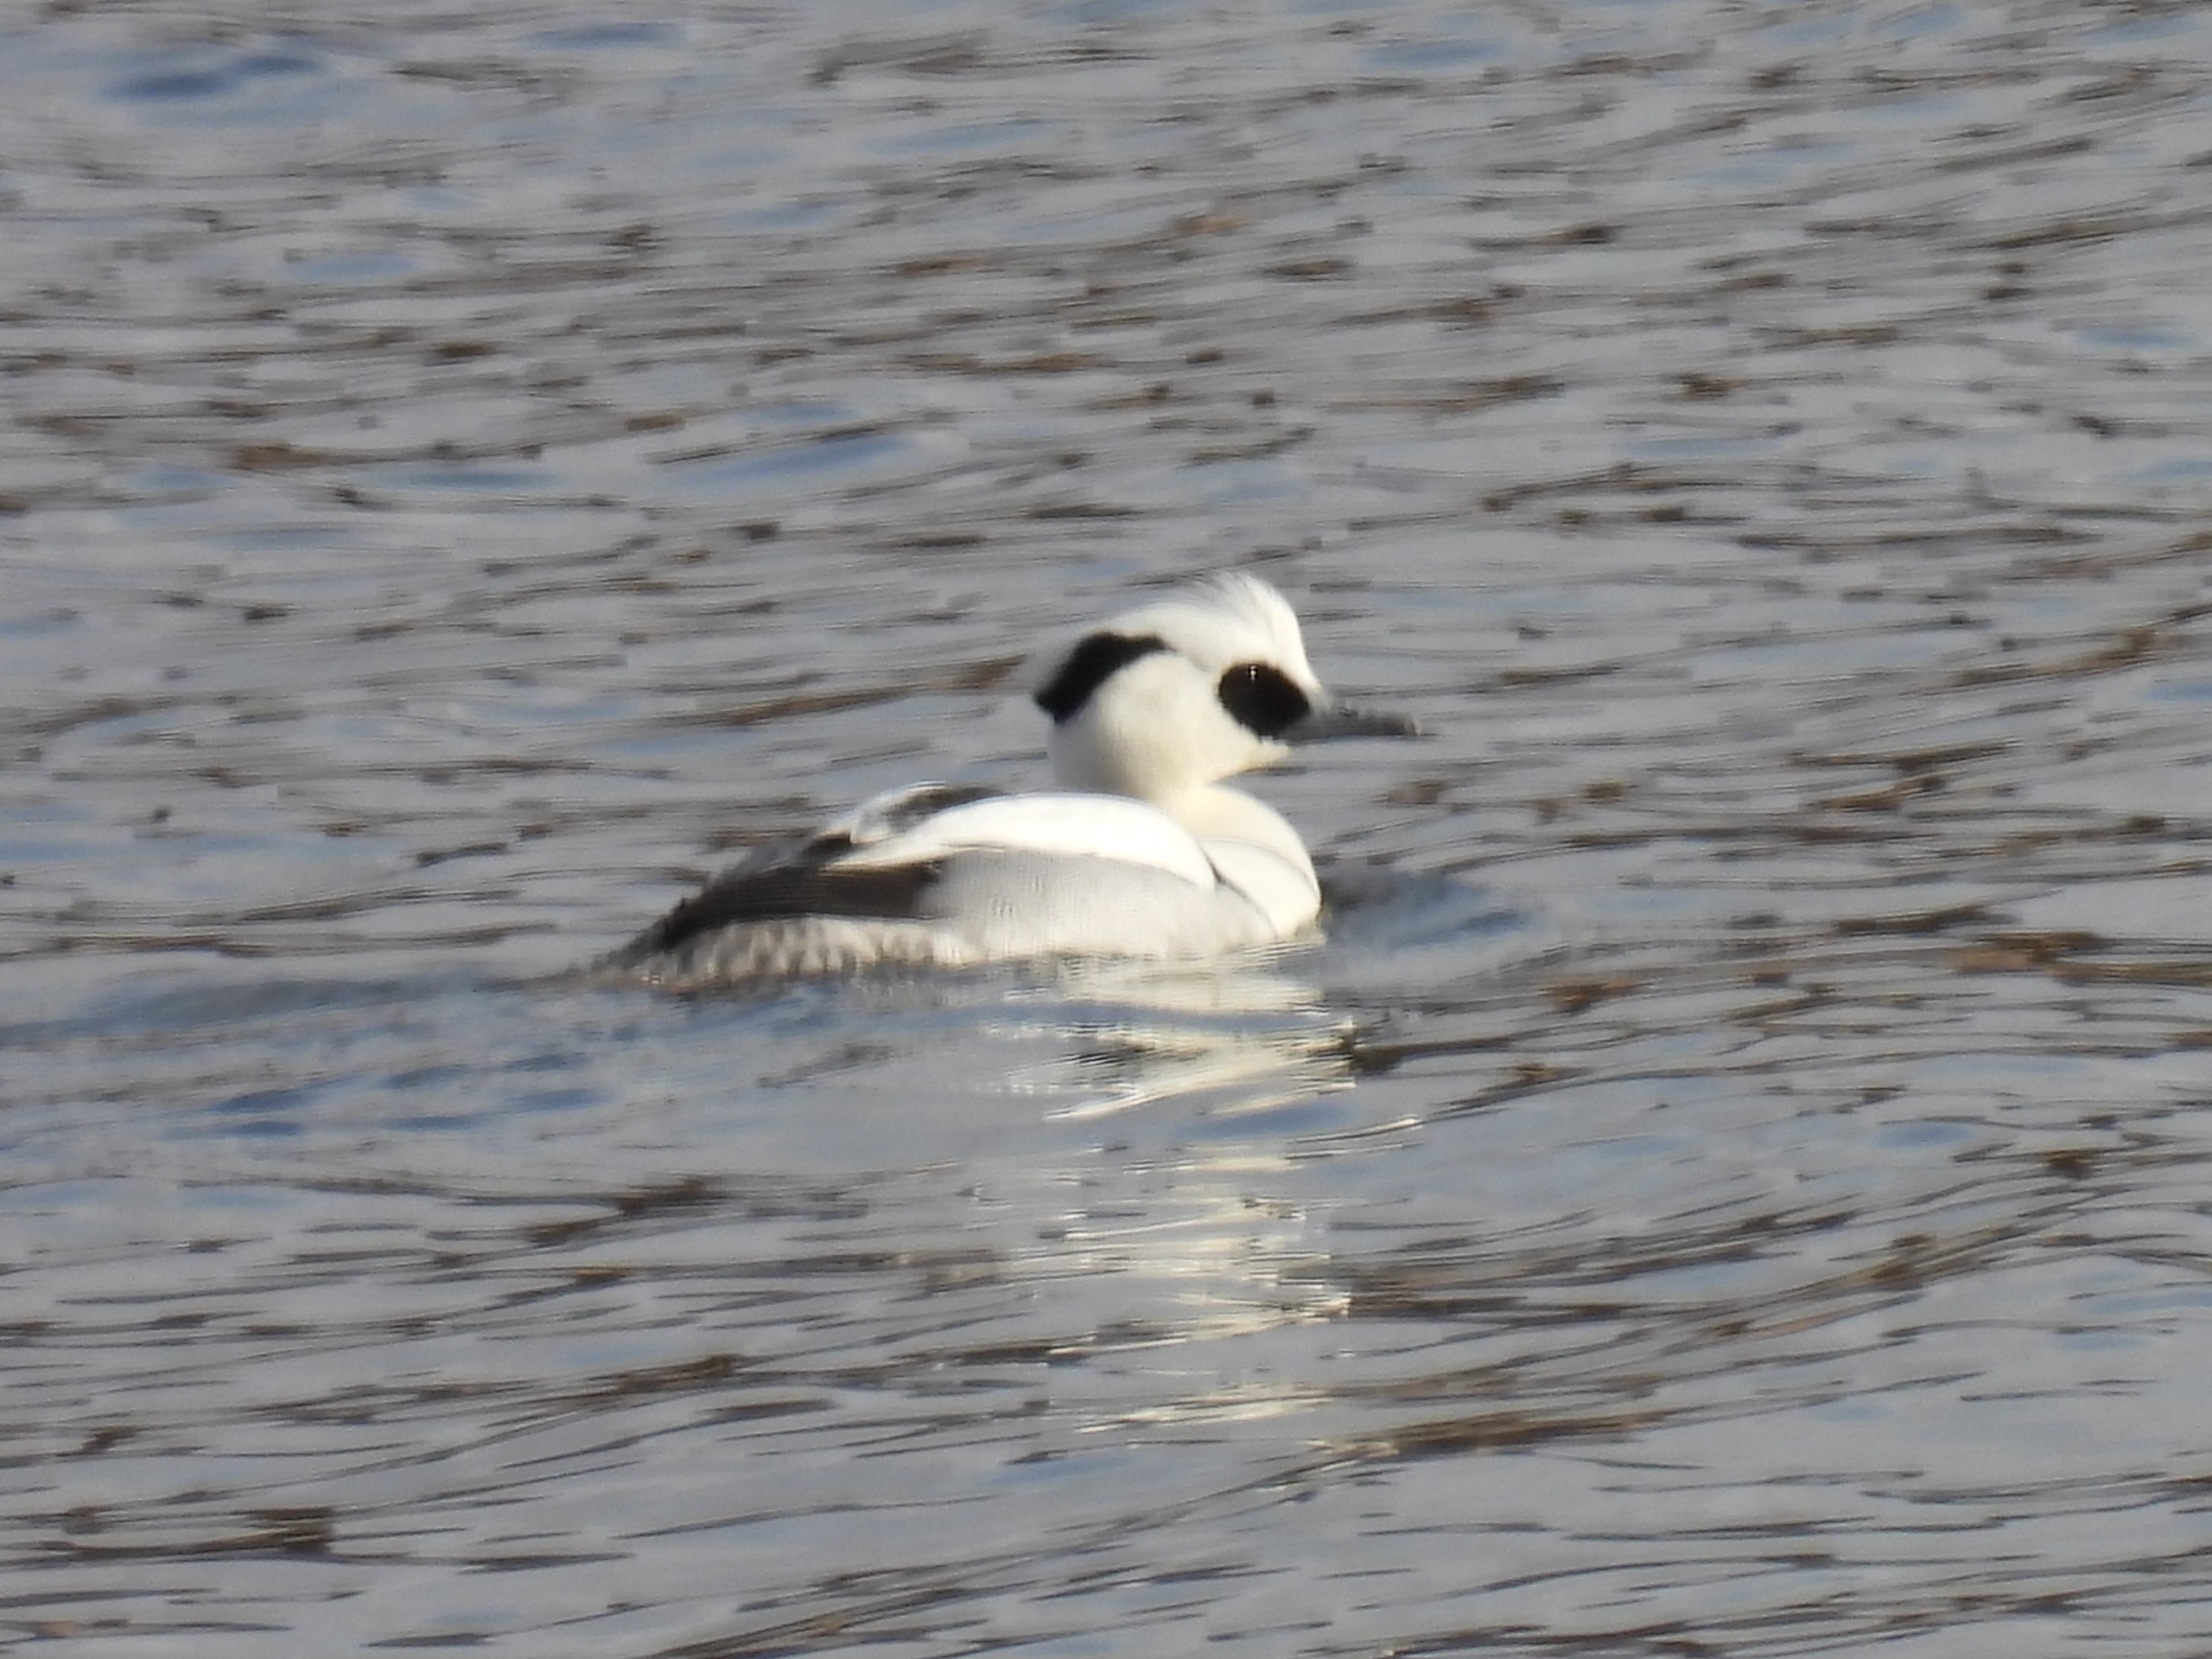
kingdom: Animalia
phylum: Chordata
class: Aves
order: Anseriformes
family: Anatidae
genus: Mergellus
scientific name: Mergellus albellus
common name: Lille skallesluger
